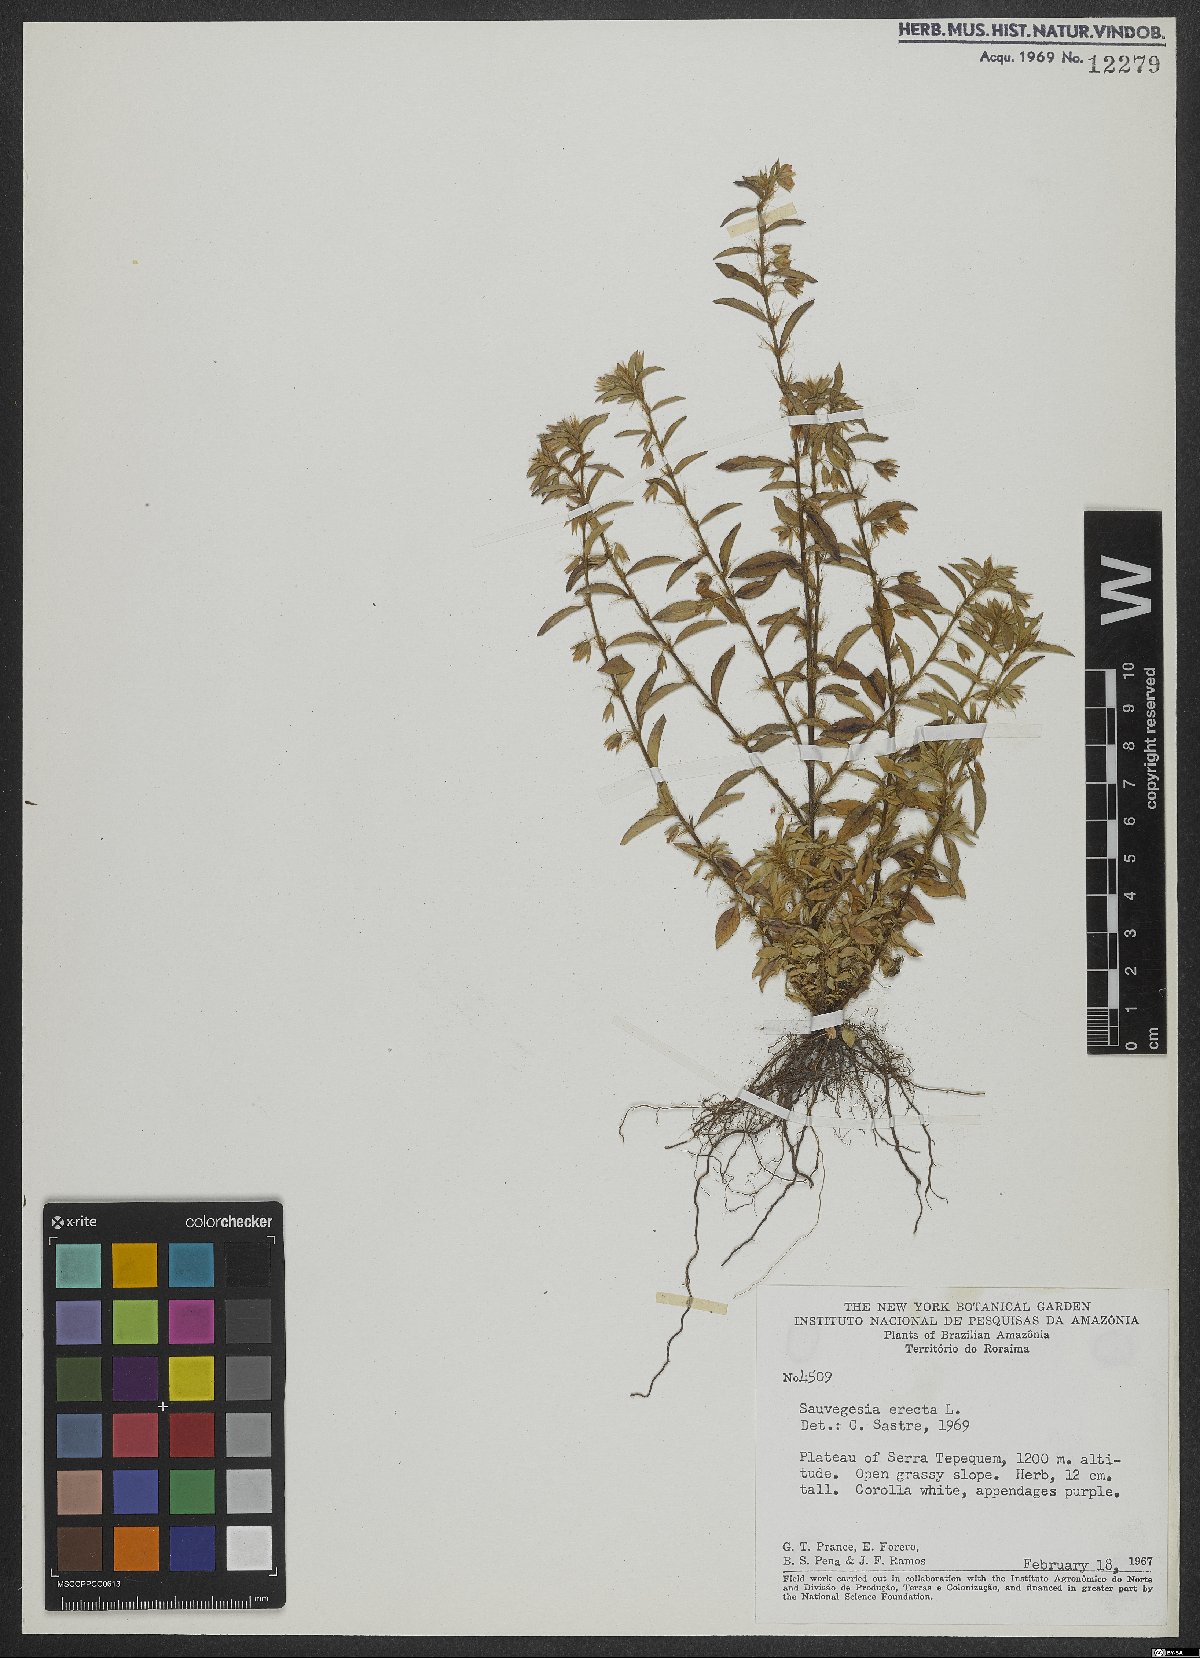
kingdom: Plantae
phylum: Tracheophyta
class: Magnoliopsida
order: Malpighiales
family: Ochnaceae
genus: Sauvagesia
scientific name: Sauvagesia erecta
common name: Creole tea
